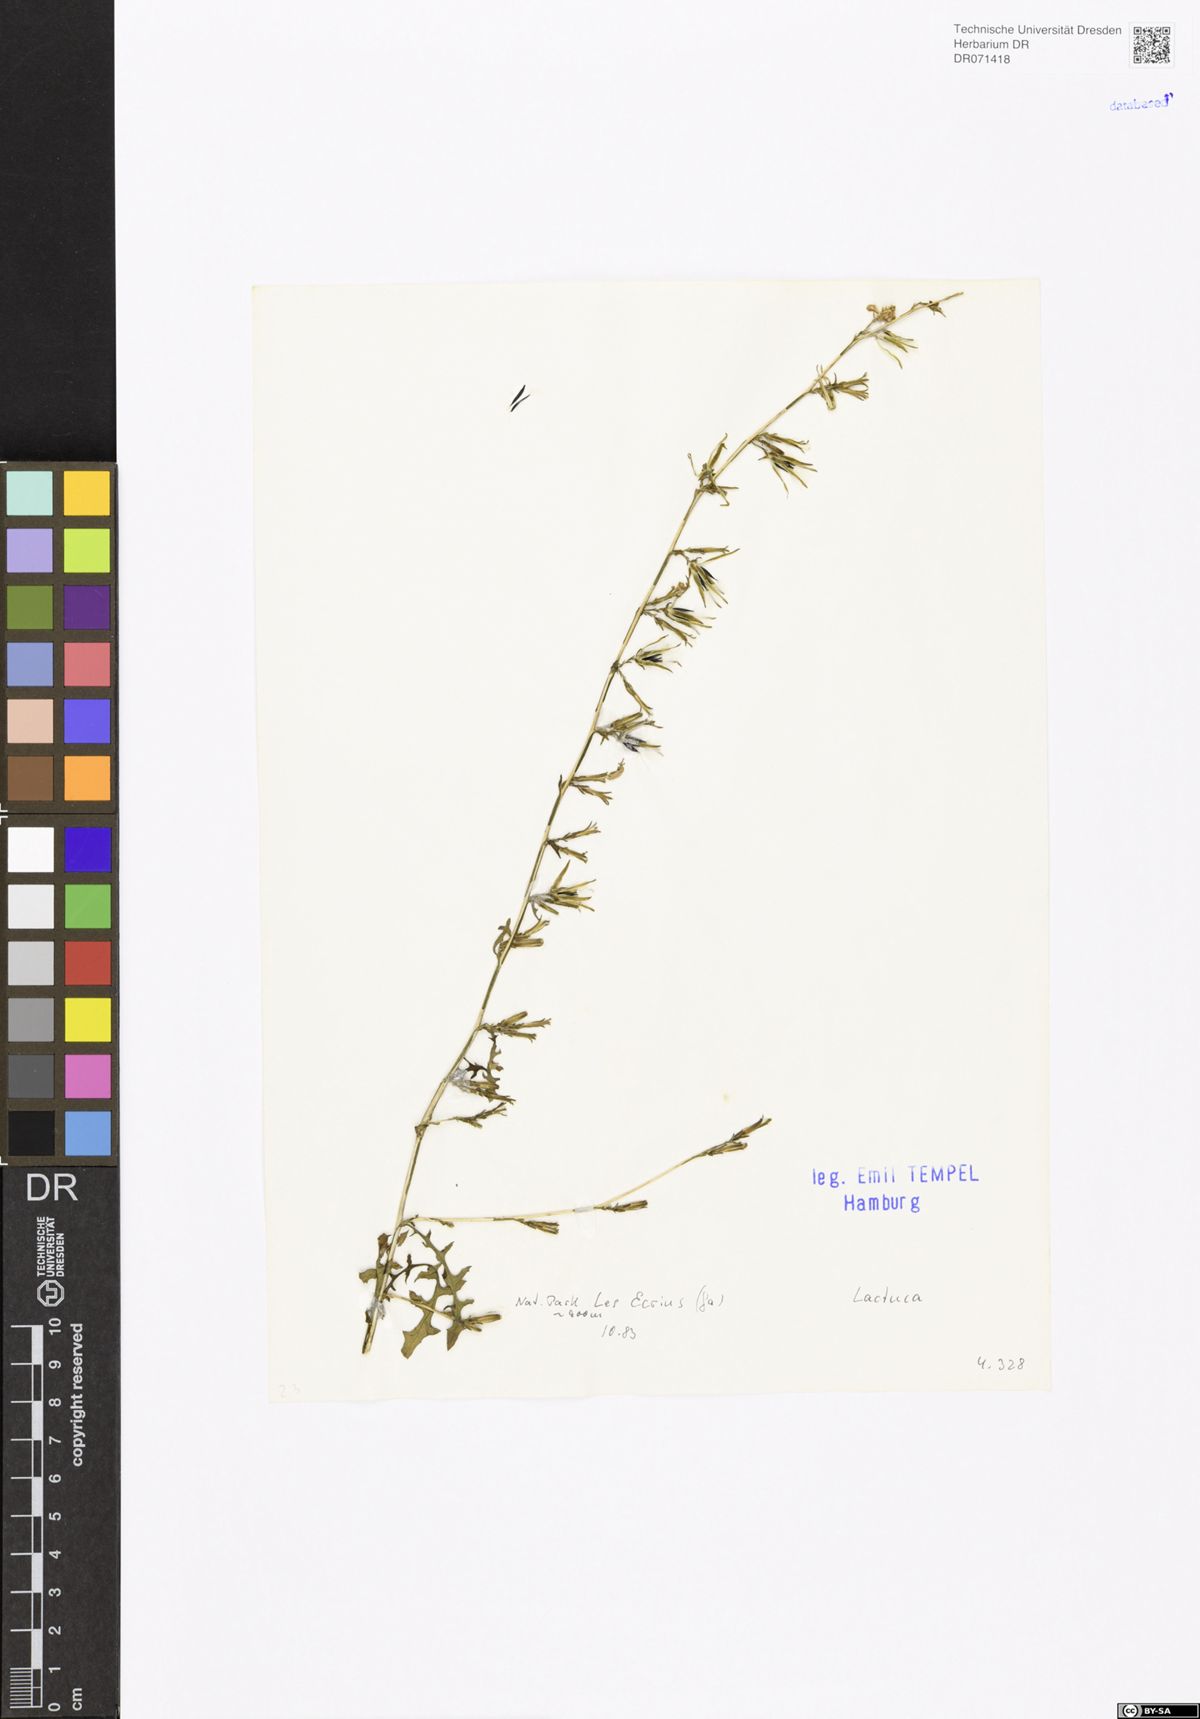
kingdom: Plantae
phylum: Tracheophyta
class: Magnoliopsida
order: Asterales
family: Asteraceae
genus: Lactuca
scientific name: Lactuca
